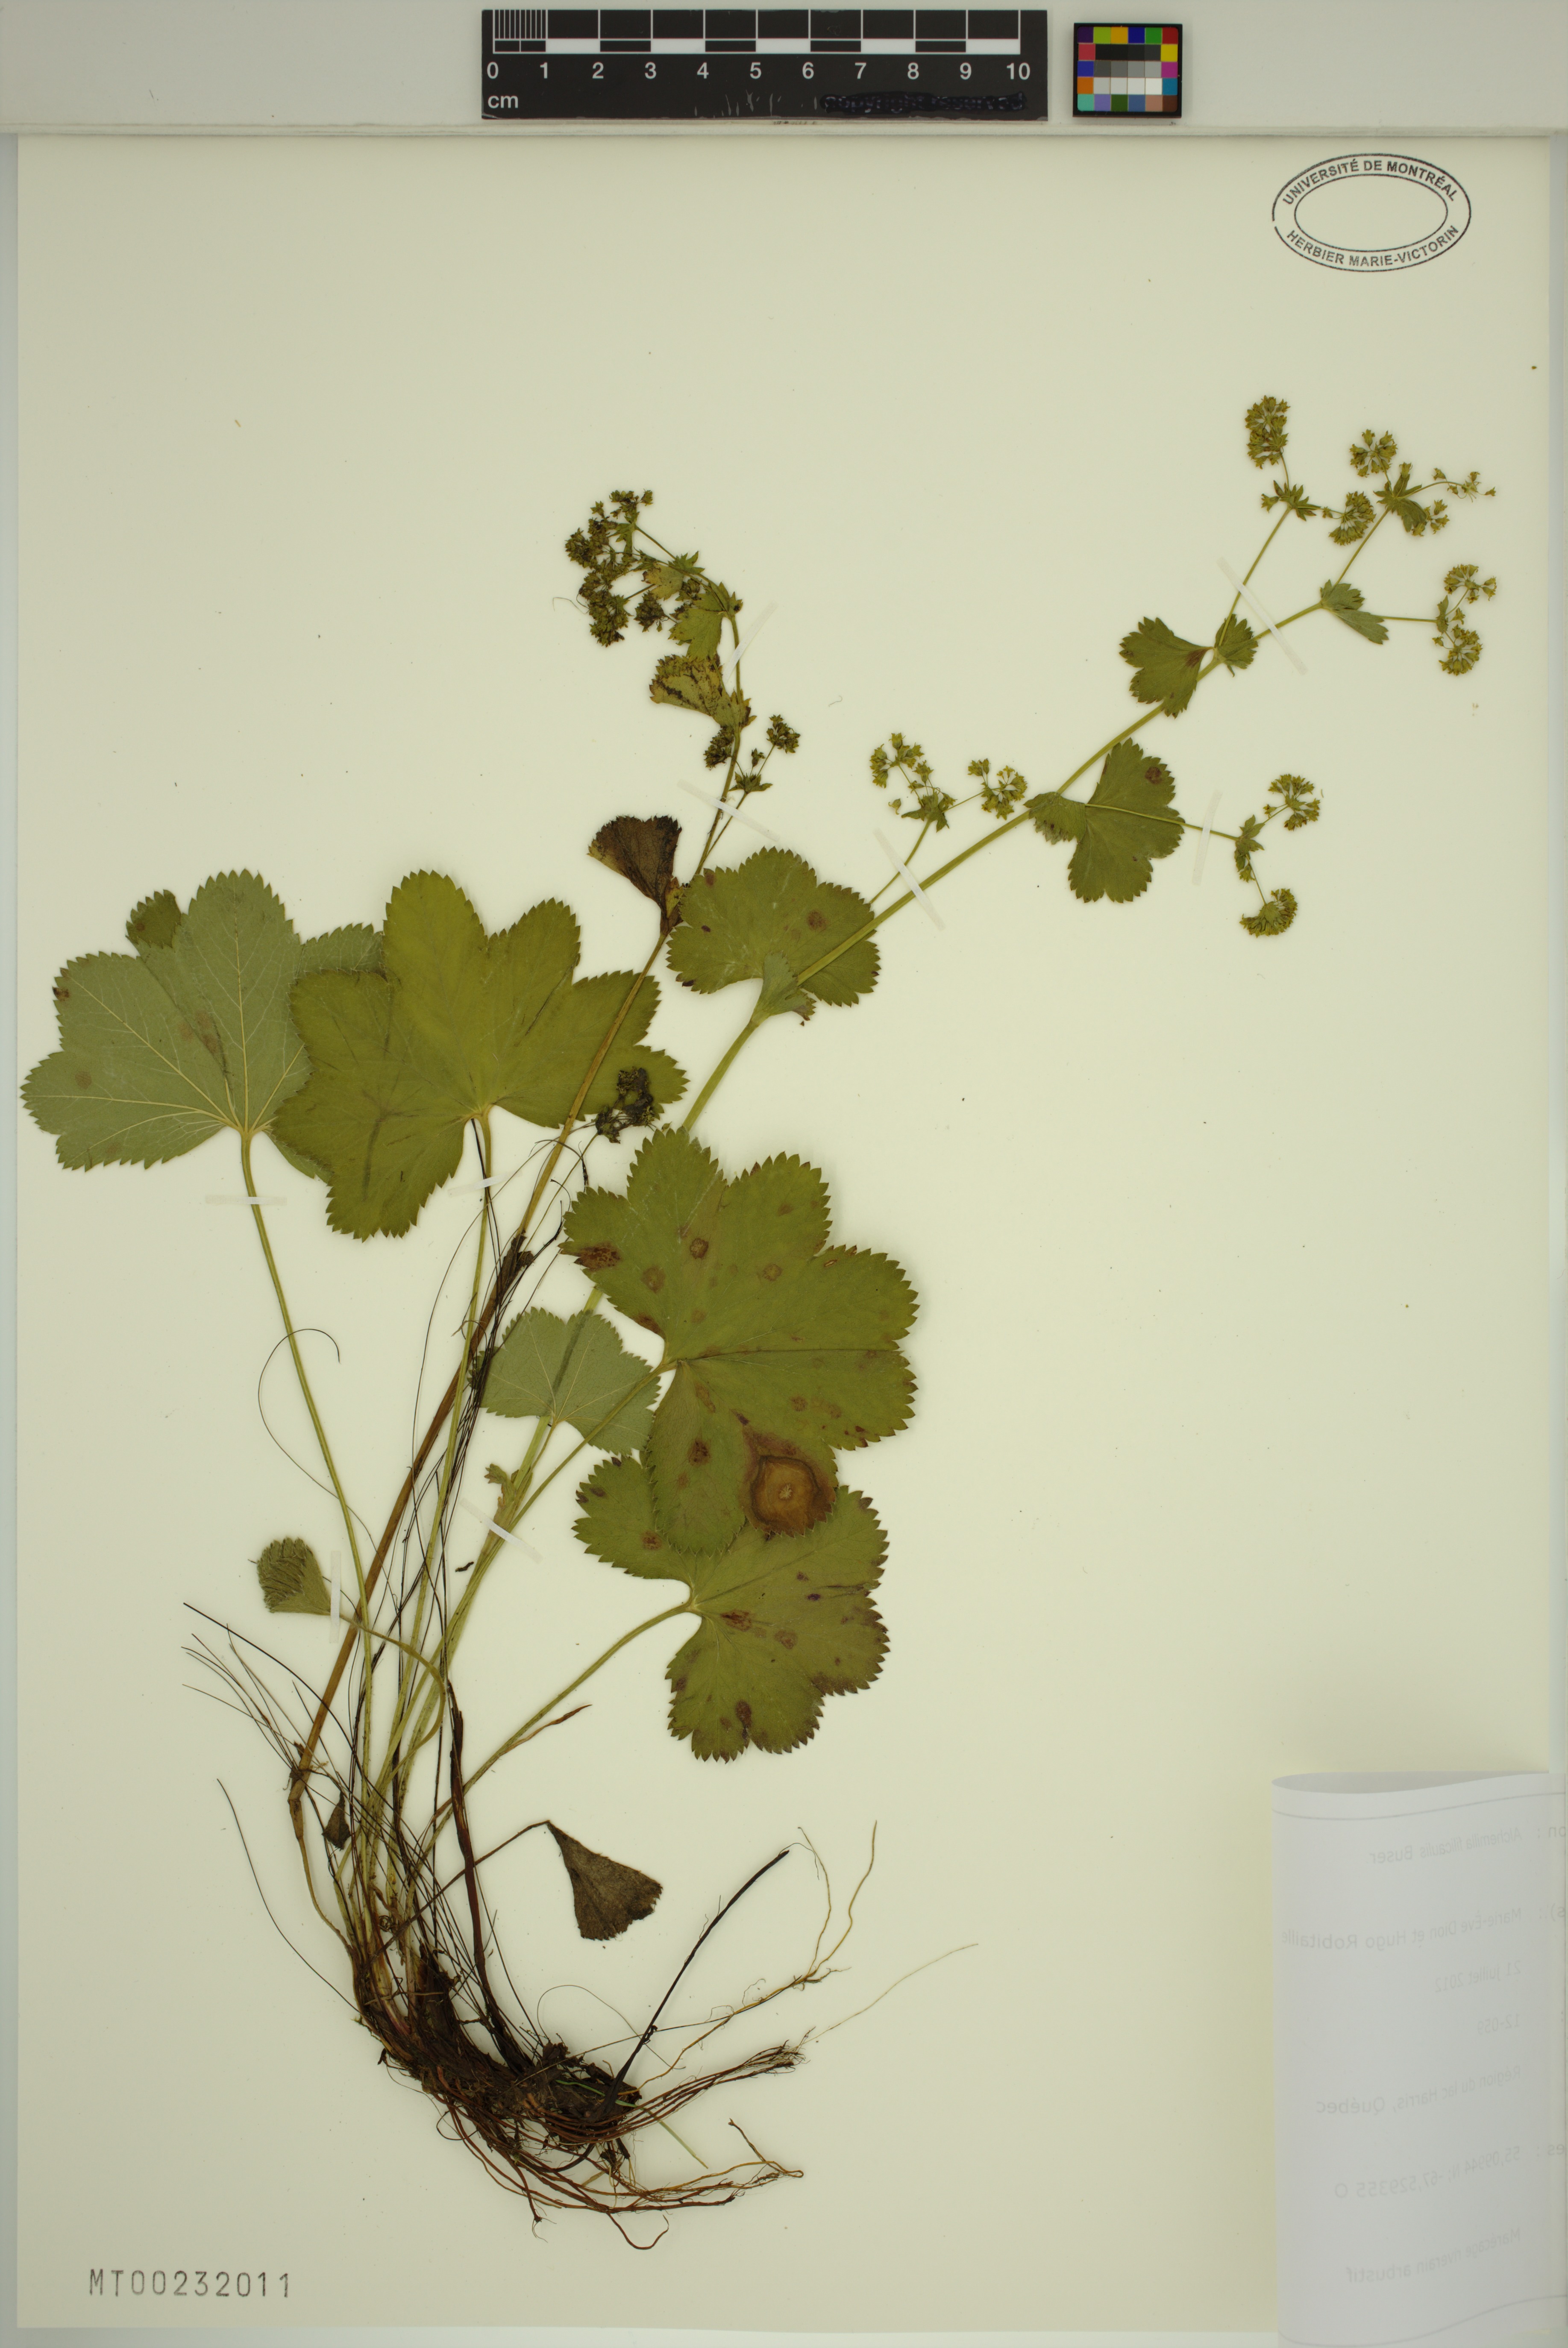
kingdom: Plantae
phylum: Tracheophyta
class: Magnoliopsida
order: Rosales
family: Rosaceae
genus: Alchemilla
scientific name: Alchemilla filicaulis
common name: Hairy lady's-mantle
